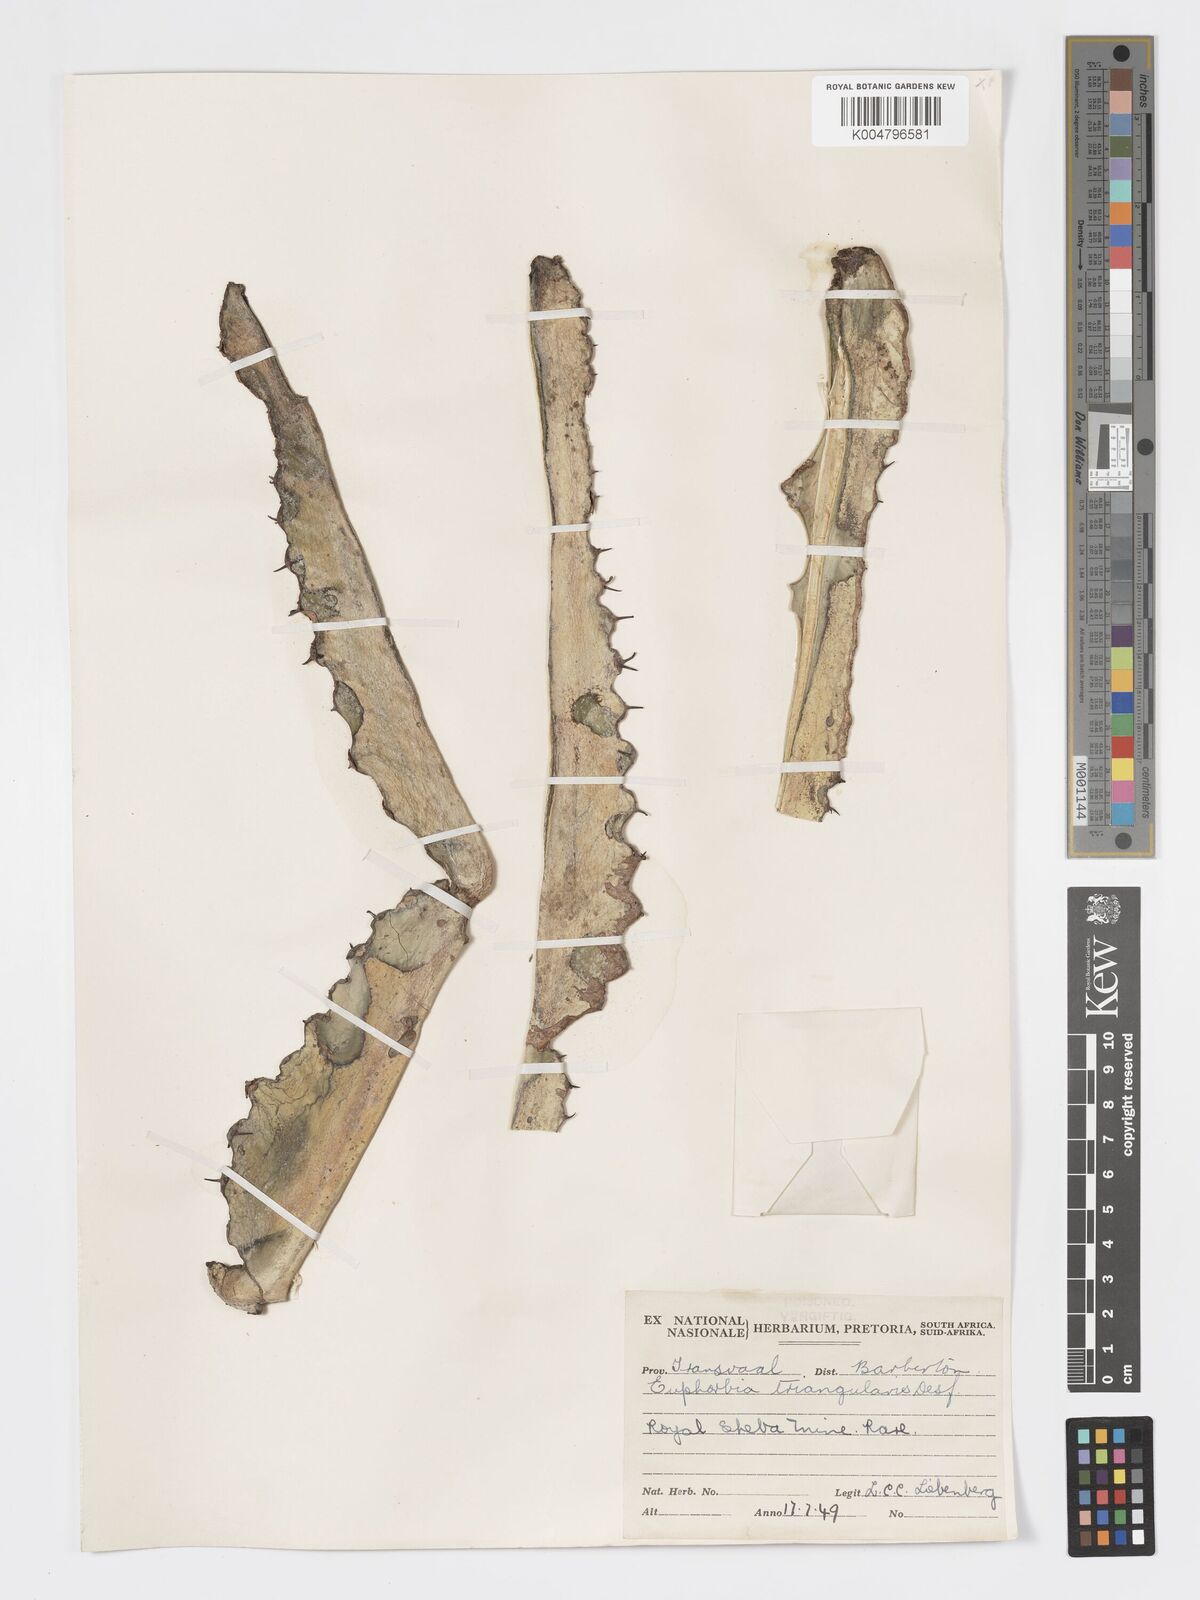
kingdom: Plantae
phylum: Tracheophyta
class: Magnoliopsida
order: Malpighiales
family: Euphorbiaceae
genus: Euphorbia
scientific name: Euphorbia triangularis
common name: Chandelier tree
